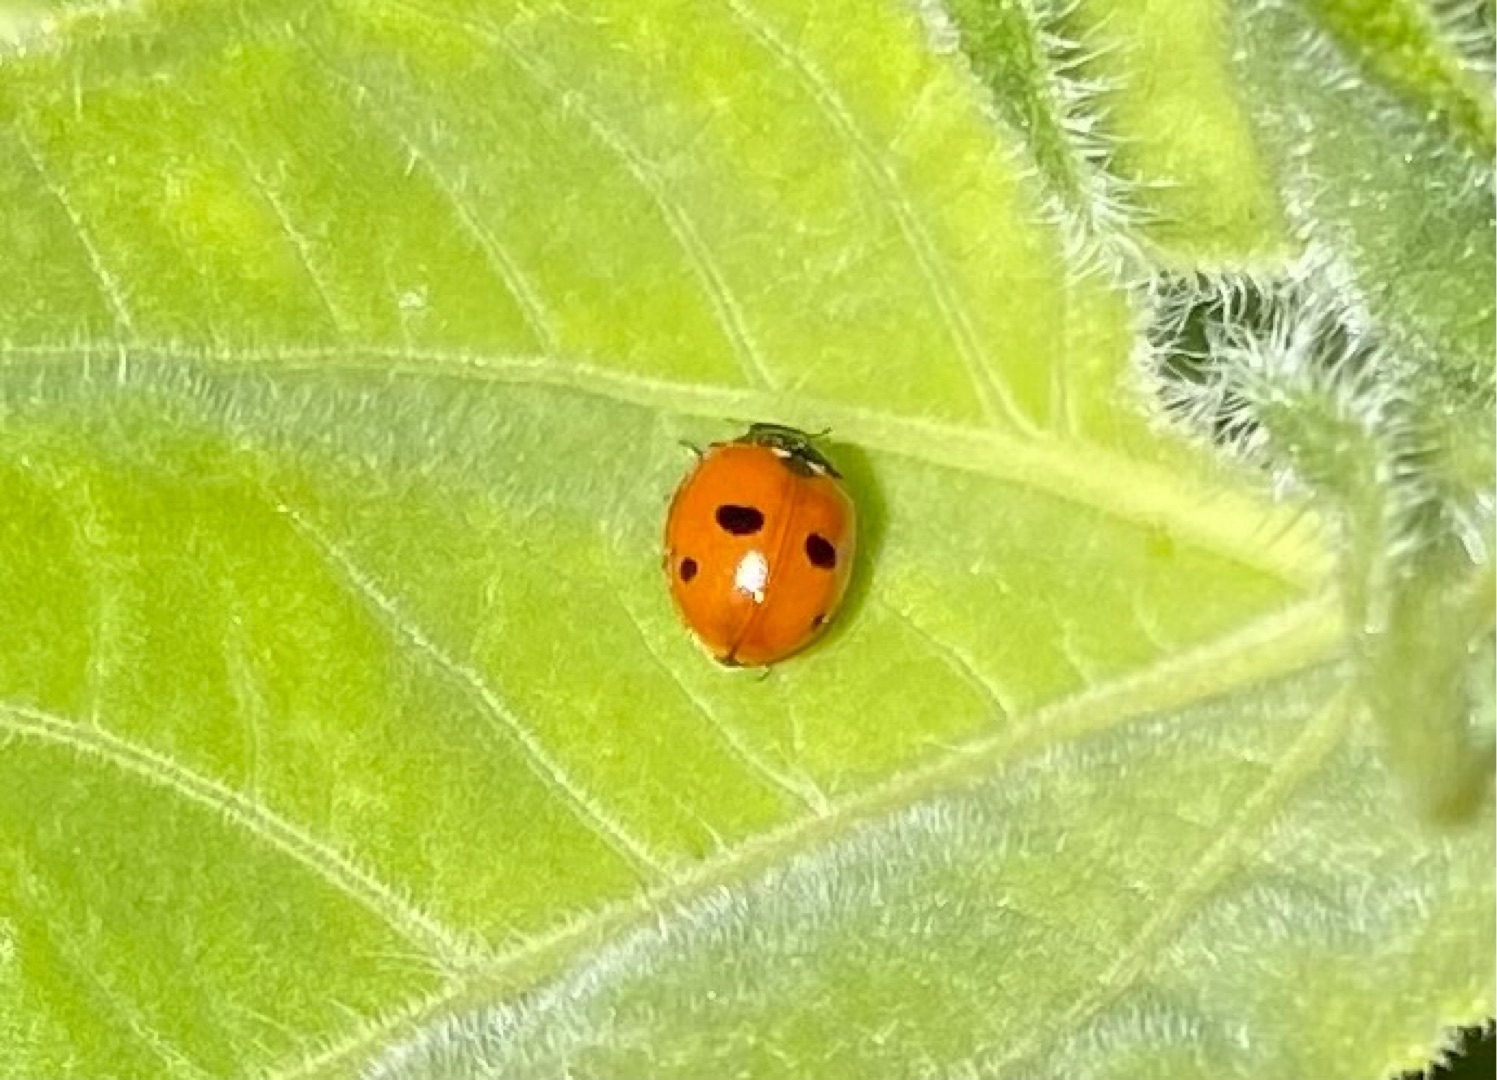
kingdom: Animalia
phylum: Arthropoda
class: Insecta
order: Coleoptera
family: Coccinellidae
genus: Coccinella
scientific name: Coccinella quinquepunctata
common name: Femplettet mariehøne
